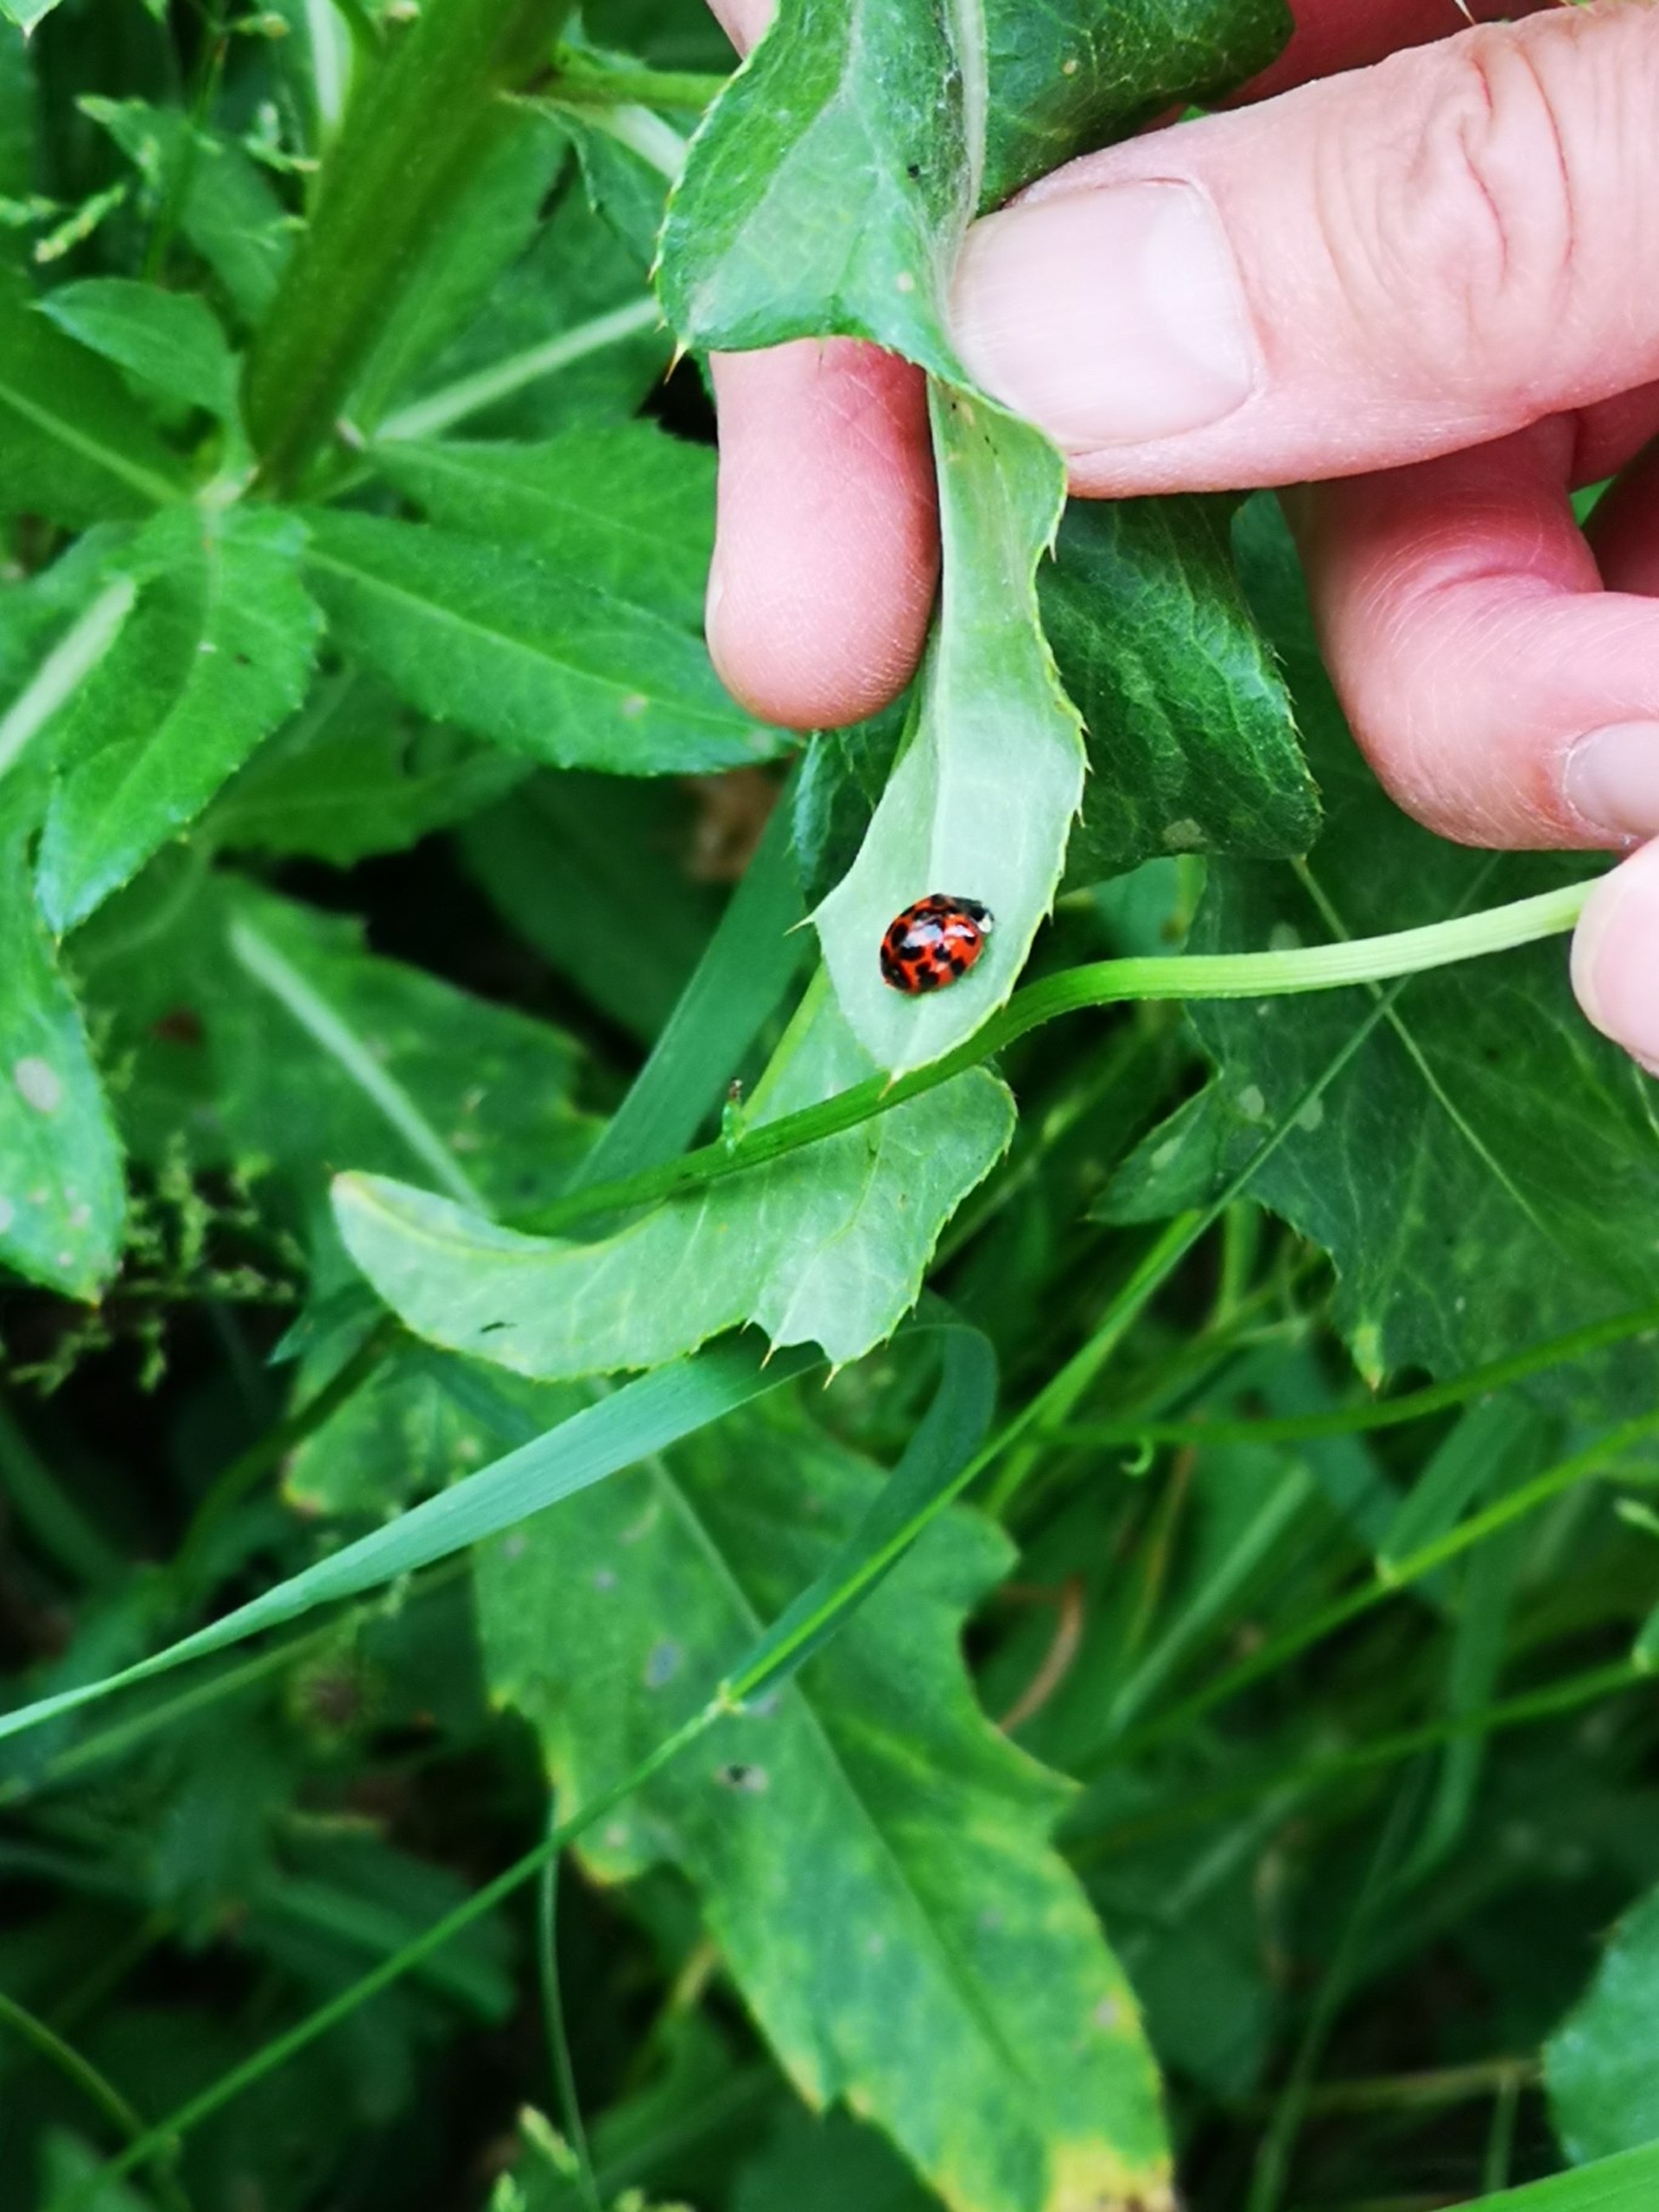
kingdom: Animalia
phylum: Arthropoda
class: Insecta
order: Coleoptera
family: Coccinellidae
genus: Harmonia
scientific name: Harmonia axyridis
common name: Harlekinmariehøne
